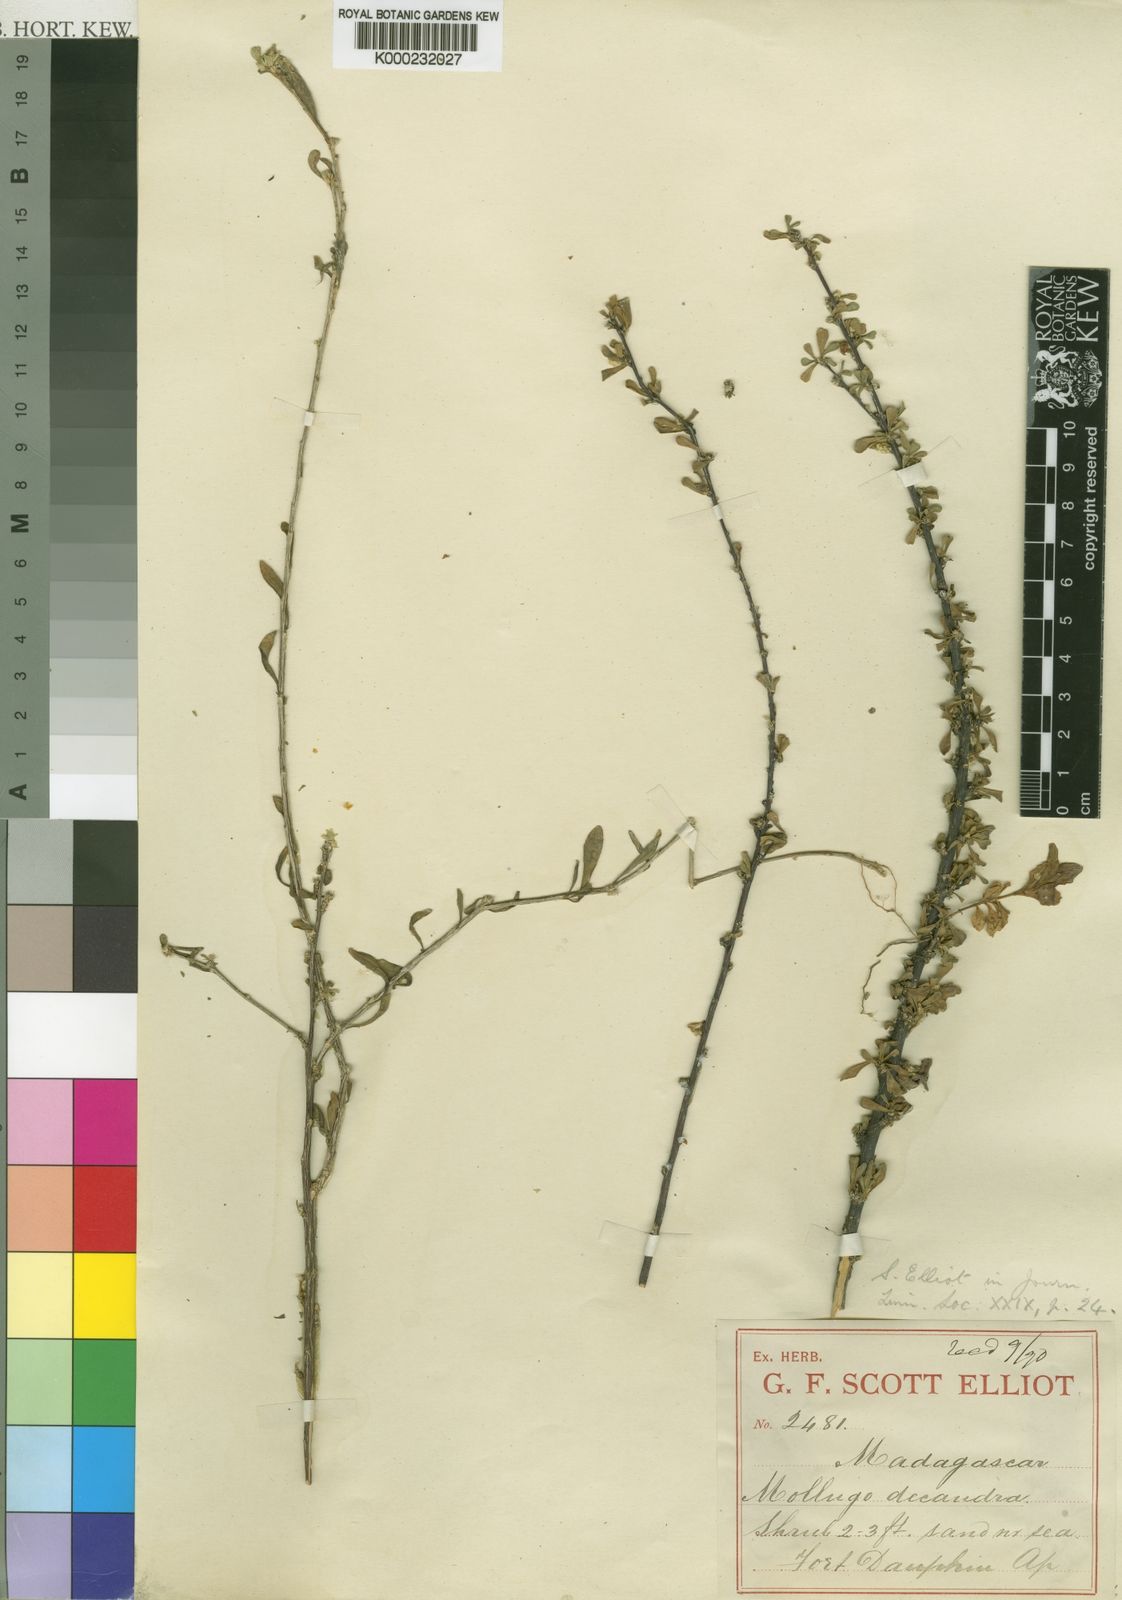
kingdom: Plantae
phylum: Tracheophyta
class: Magnoliopsida
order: Caryophyllales
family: Molluginaceae
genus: Paramollugo
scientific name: Paramollugo decandra
